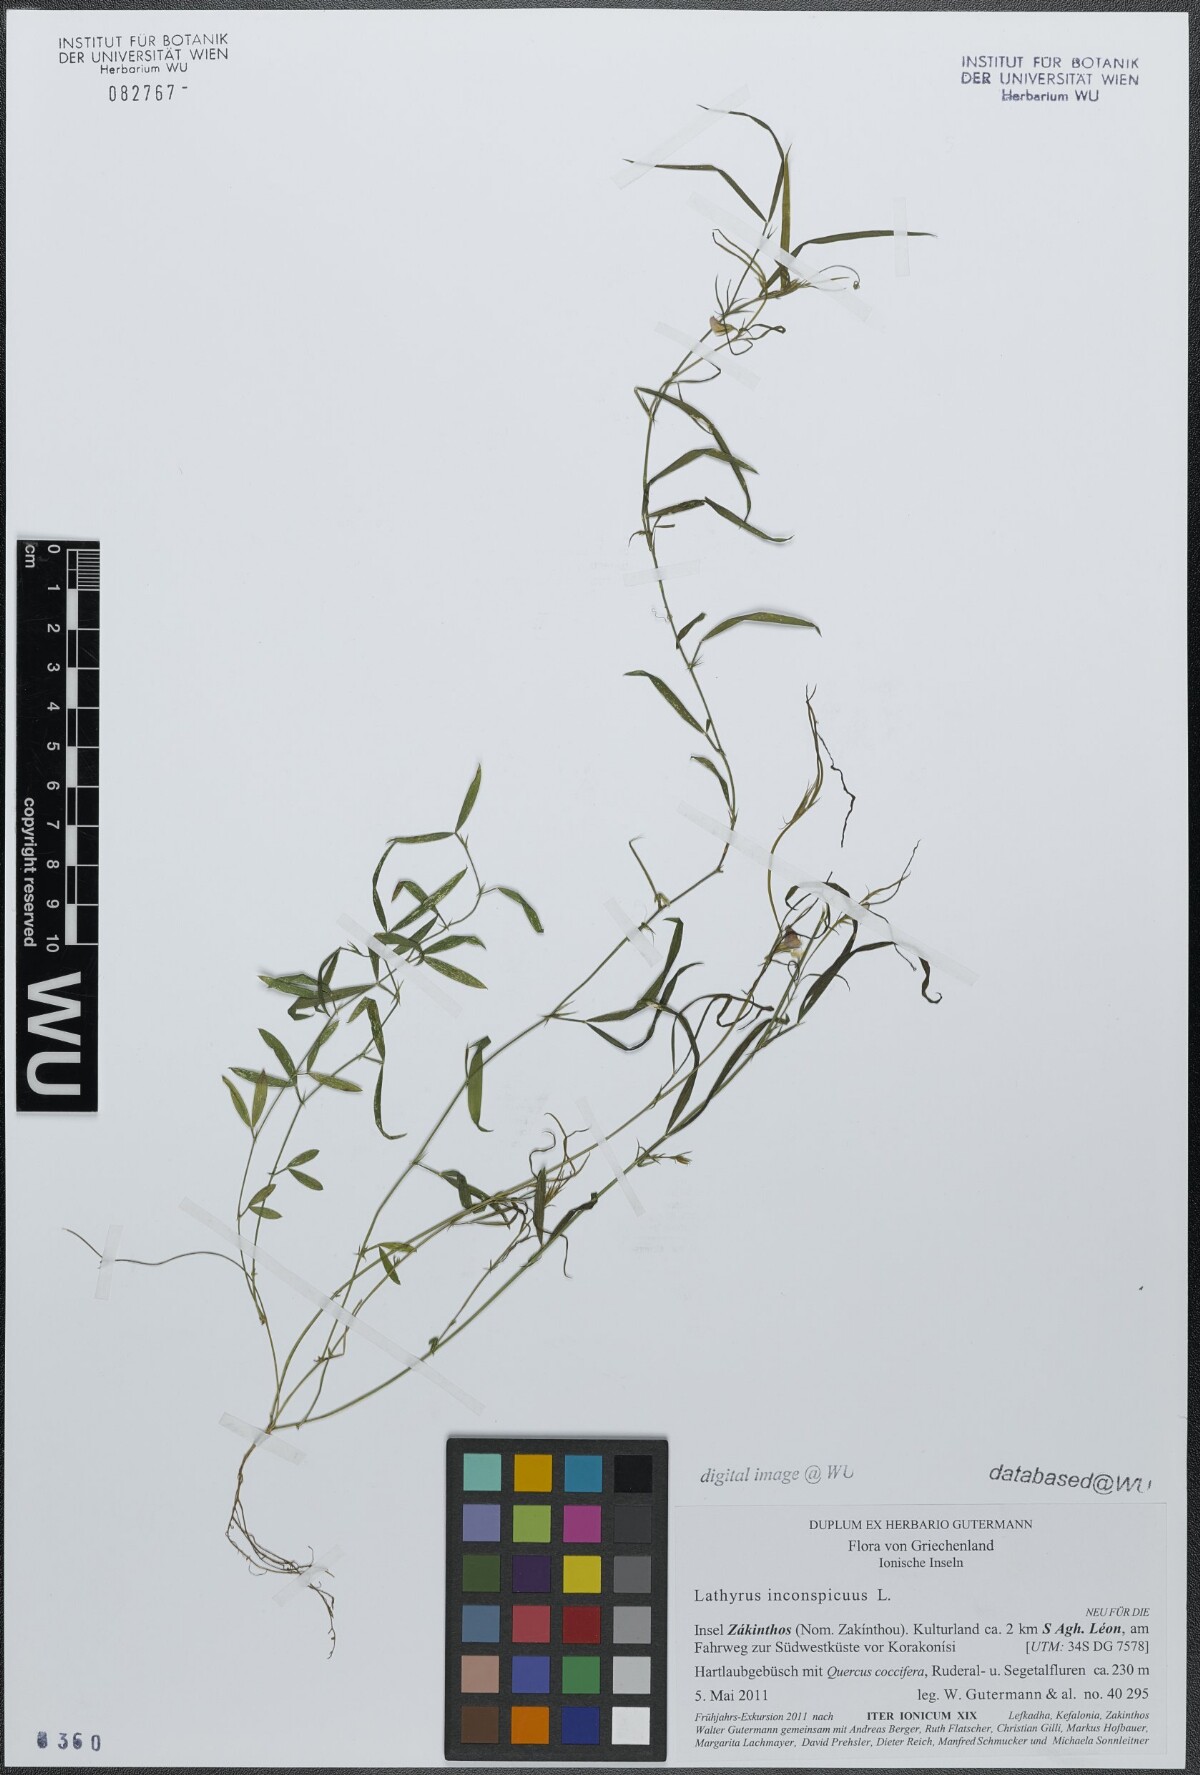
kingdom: Plantae
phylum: Tracheophyta
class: Magnoliopsida
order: Fabales
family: Fabaceae
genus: Lathyrus
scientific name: Lathyrus inconspicuus
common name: Inconspicuous pea
